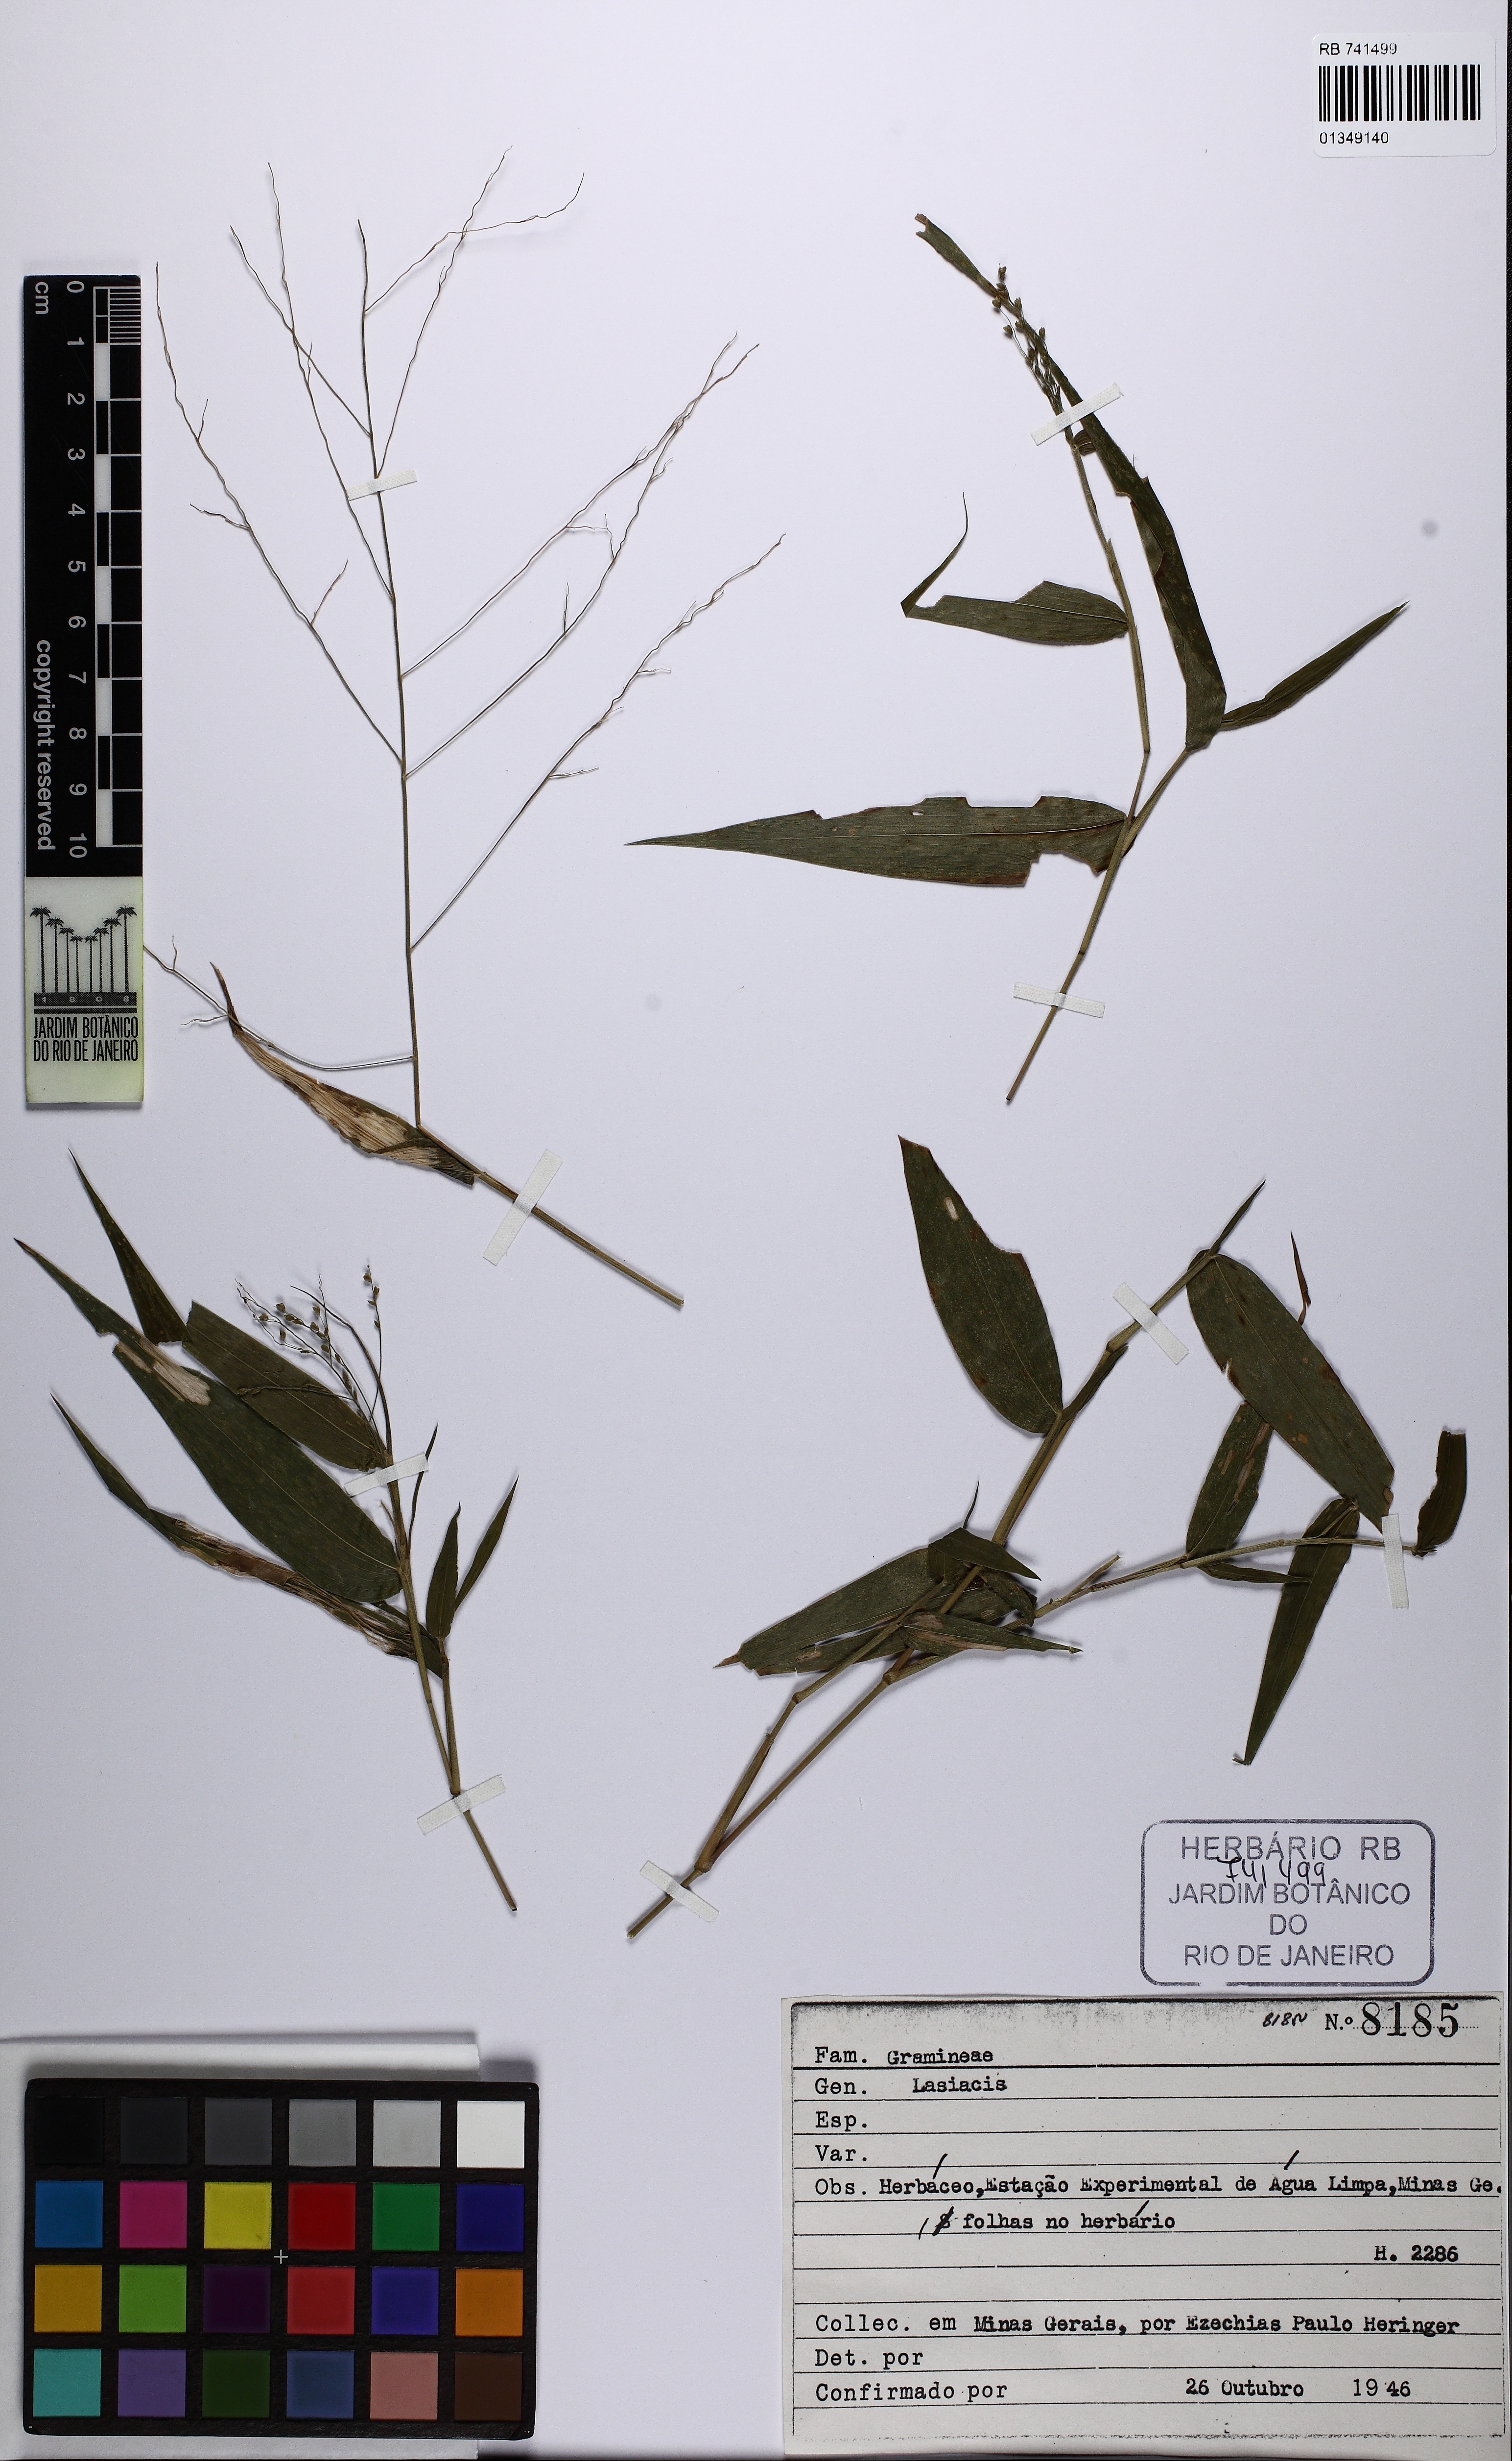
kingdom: Plantae
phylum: Tracheophyta
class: Liliopsida
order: Poales
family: Poaceae
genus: Lasiacis
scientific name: Lasiacis
